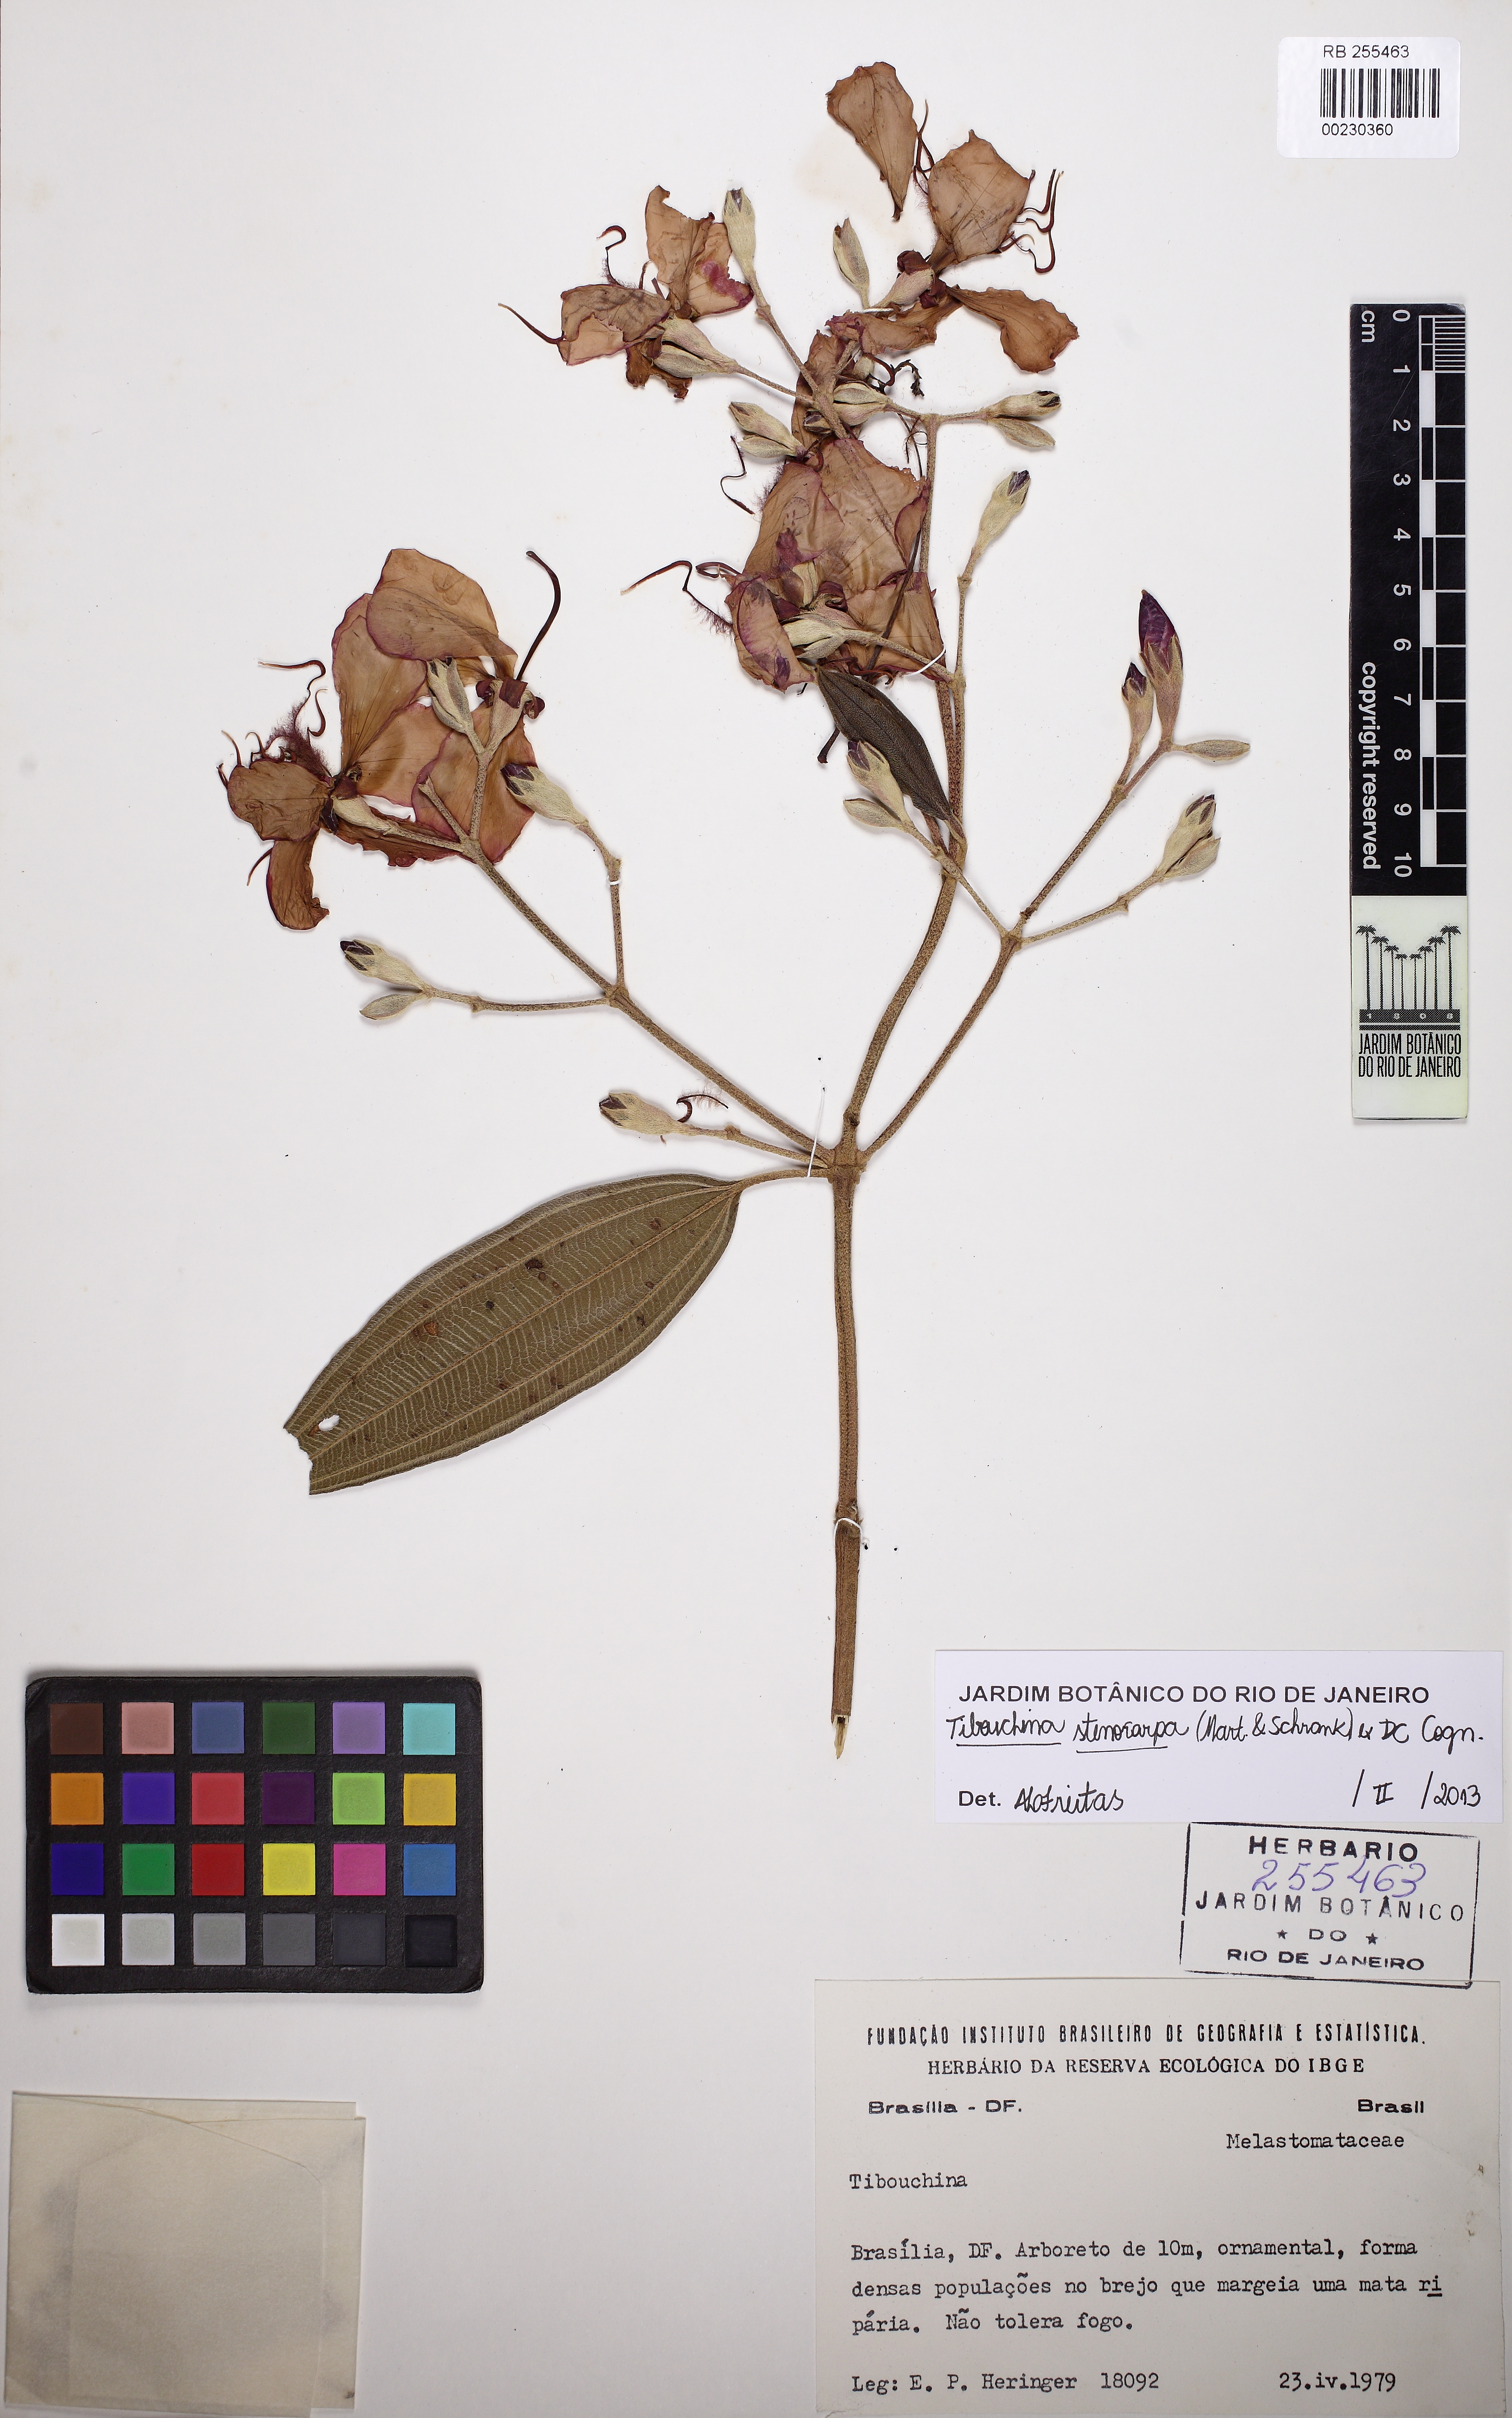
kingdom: Plantae
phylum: Tracheophyta
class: Magnoliopsida
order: Myrtales
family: Melastomataceae
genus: Pleroma
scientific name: Pleroma stenocarpum
